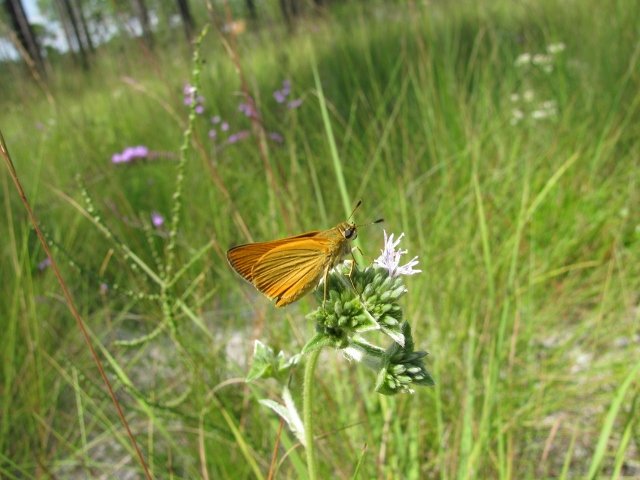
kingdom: Animalia
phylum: Arthropoda
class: Insecta
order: Lepidoptera
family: Hesperiidae
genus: Atrytone
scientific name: Atrytone delaware
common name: Delaware Skipper
